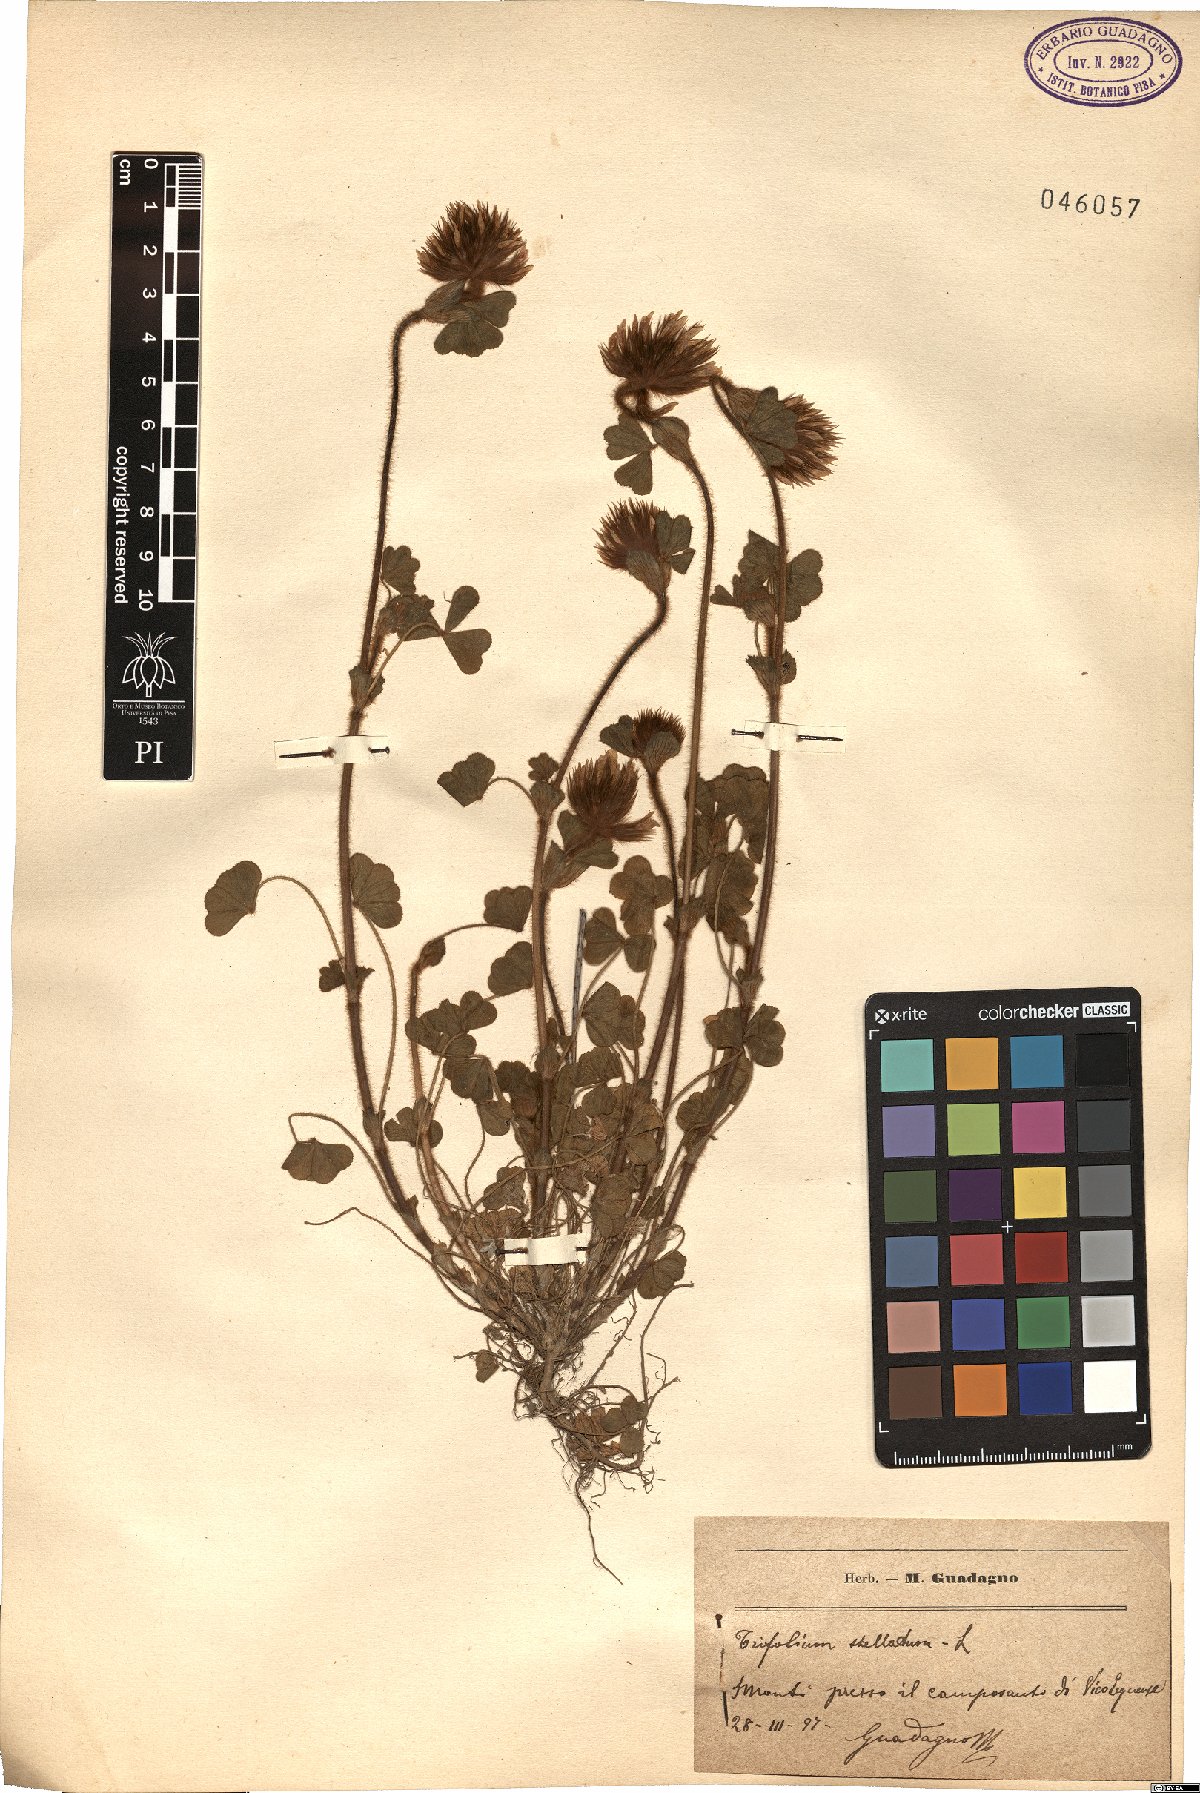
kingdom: Plantae
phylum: Tracheophyta
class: Magnoliopsida
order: Fabales
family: Fabaceae
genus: Trifolium
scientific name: Trifolium stellatum
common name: Starry clover
